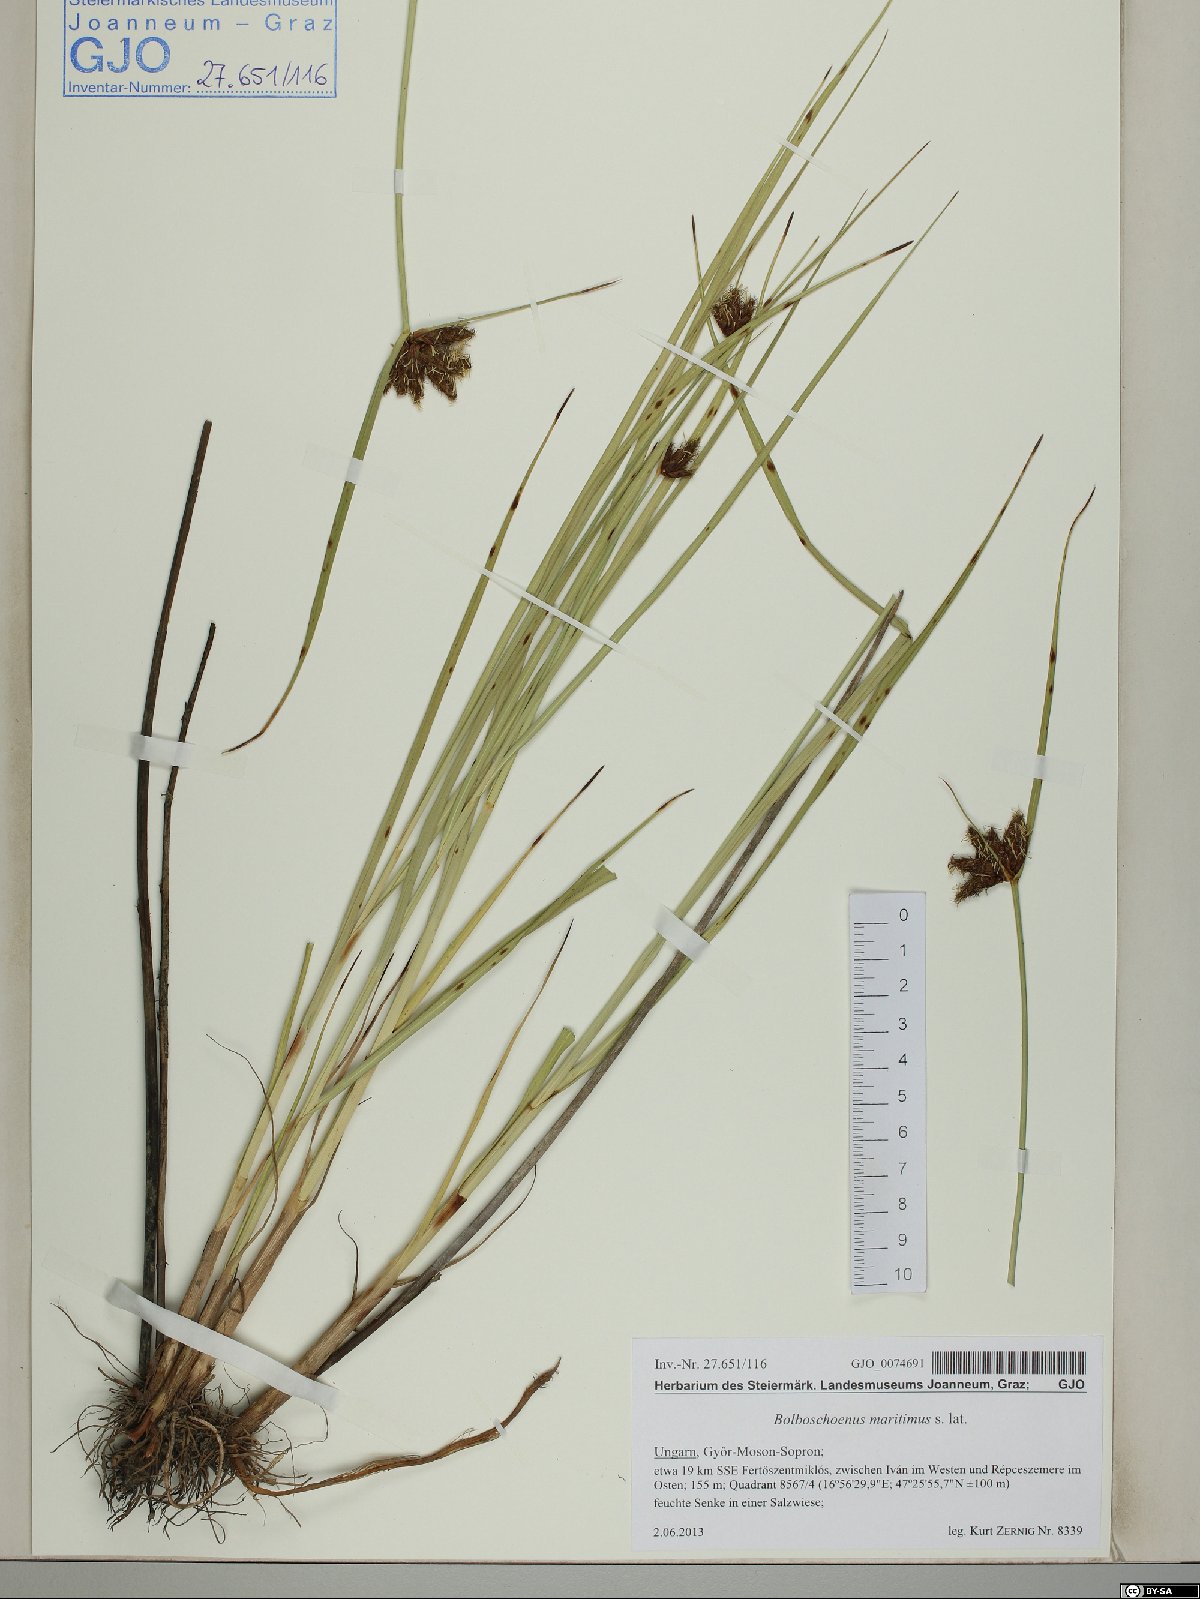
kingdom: Plantae
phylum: Tracheophyta
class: Liliopsida
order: Poales
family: Cyperaceae
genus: Bolboschoenus
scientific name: Bolboschoenus maritimus
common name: Sea club-rush
